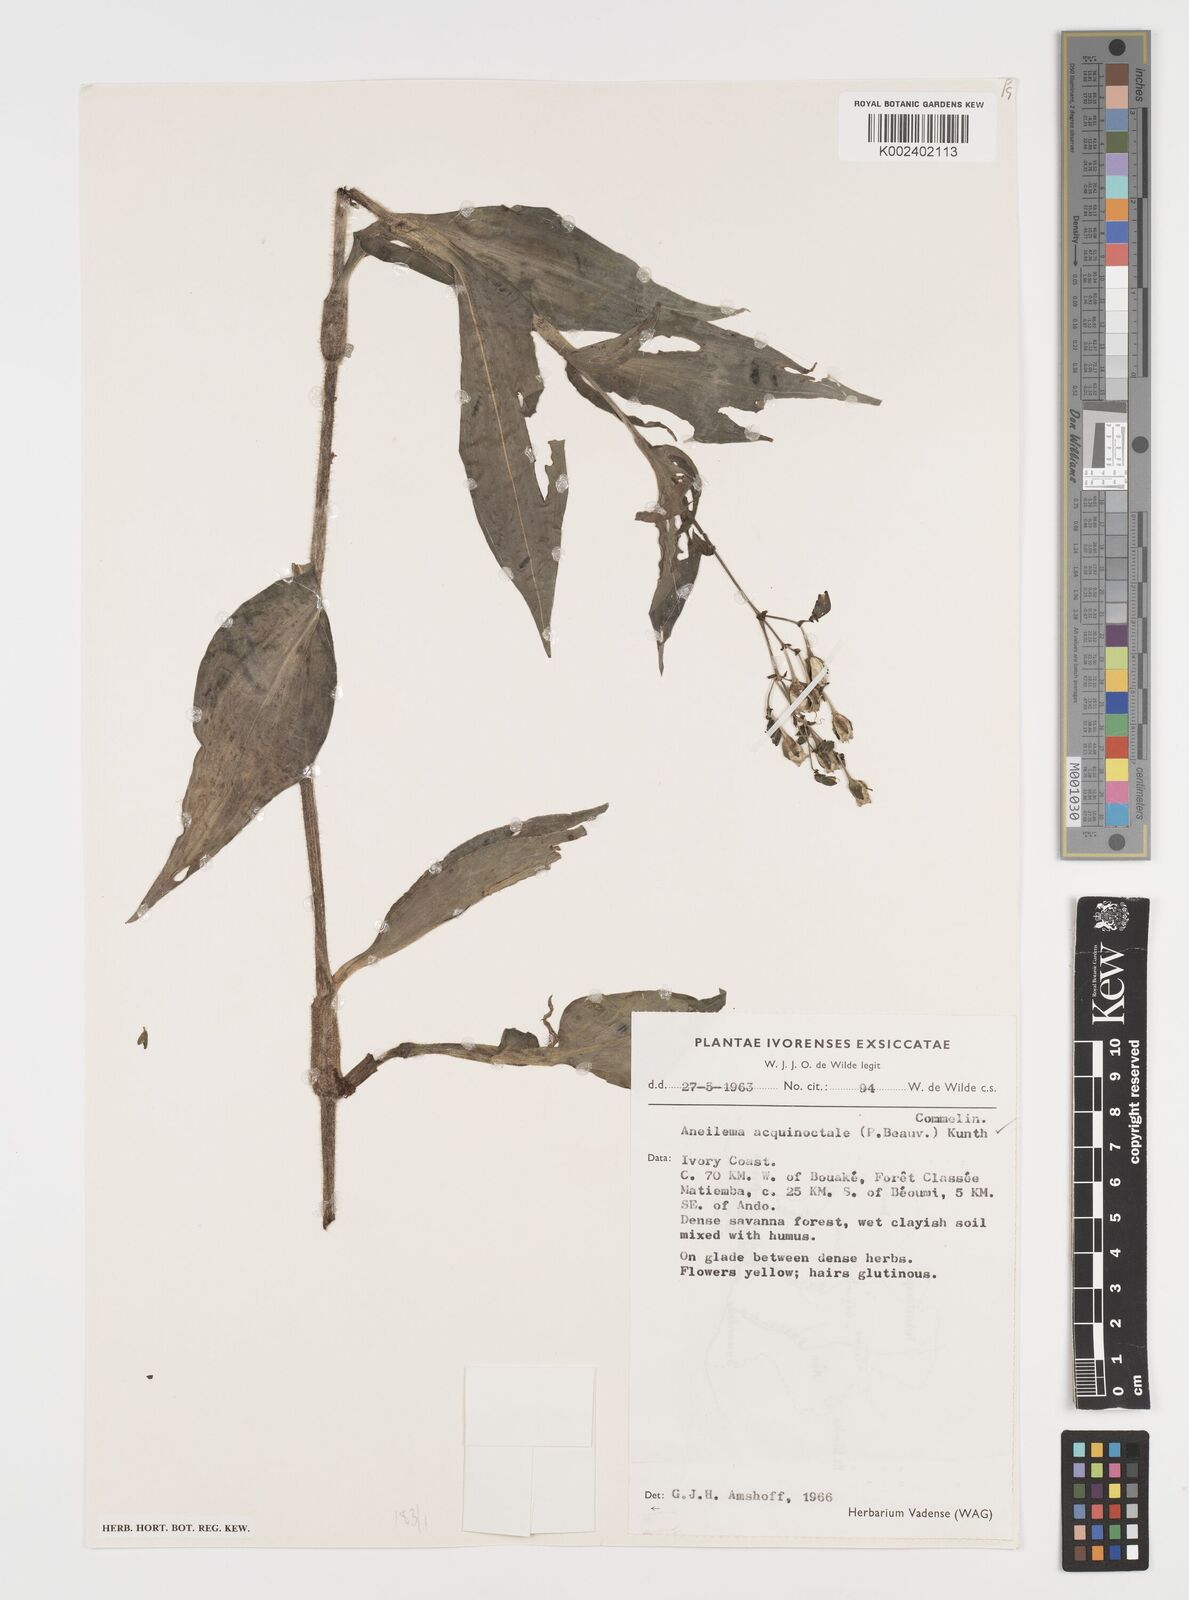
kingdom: Plantae
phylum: Tracheophyta
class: Liliopsida
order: Commelinales
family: Commelinaceae
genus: Aneilema
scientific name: Aneilema aequinoctiale
